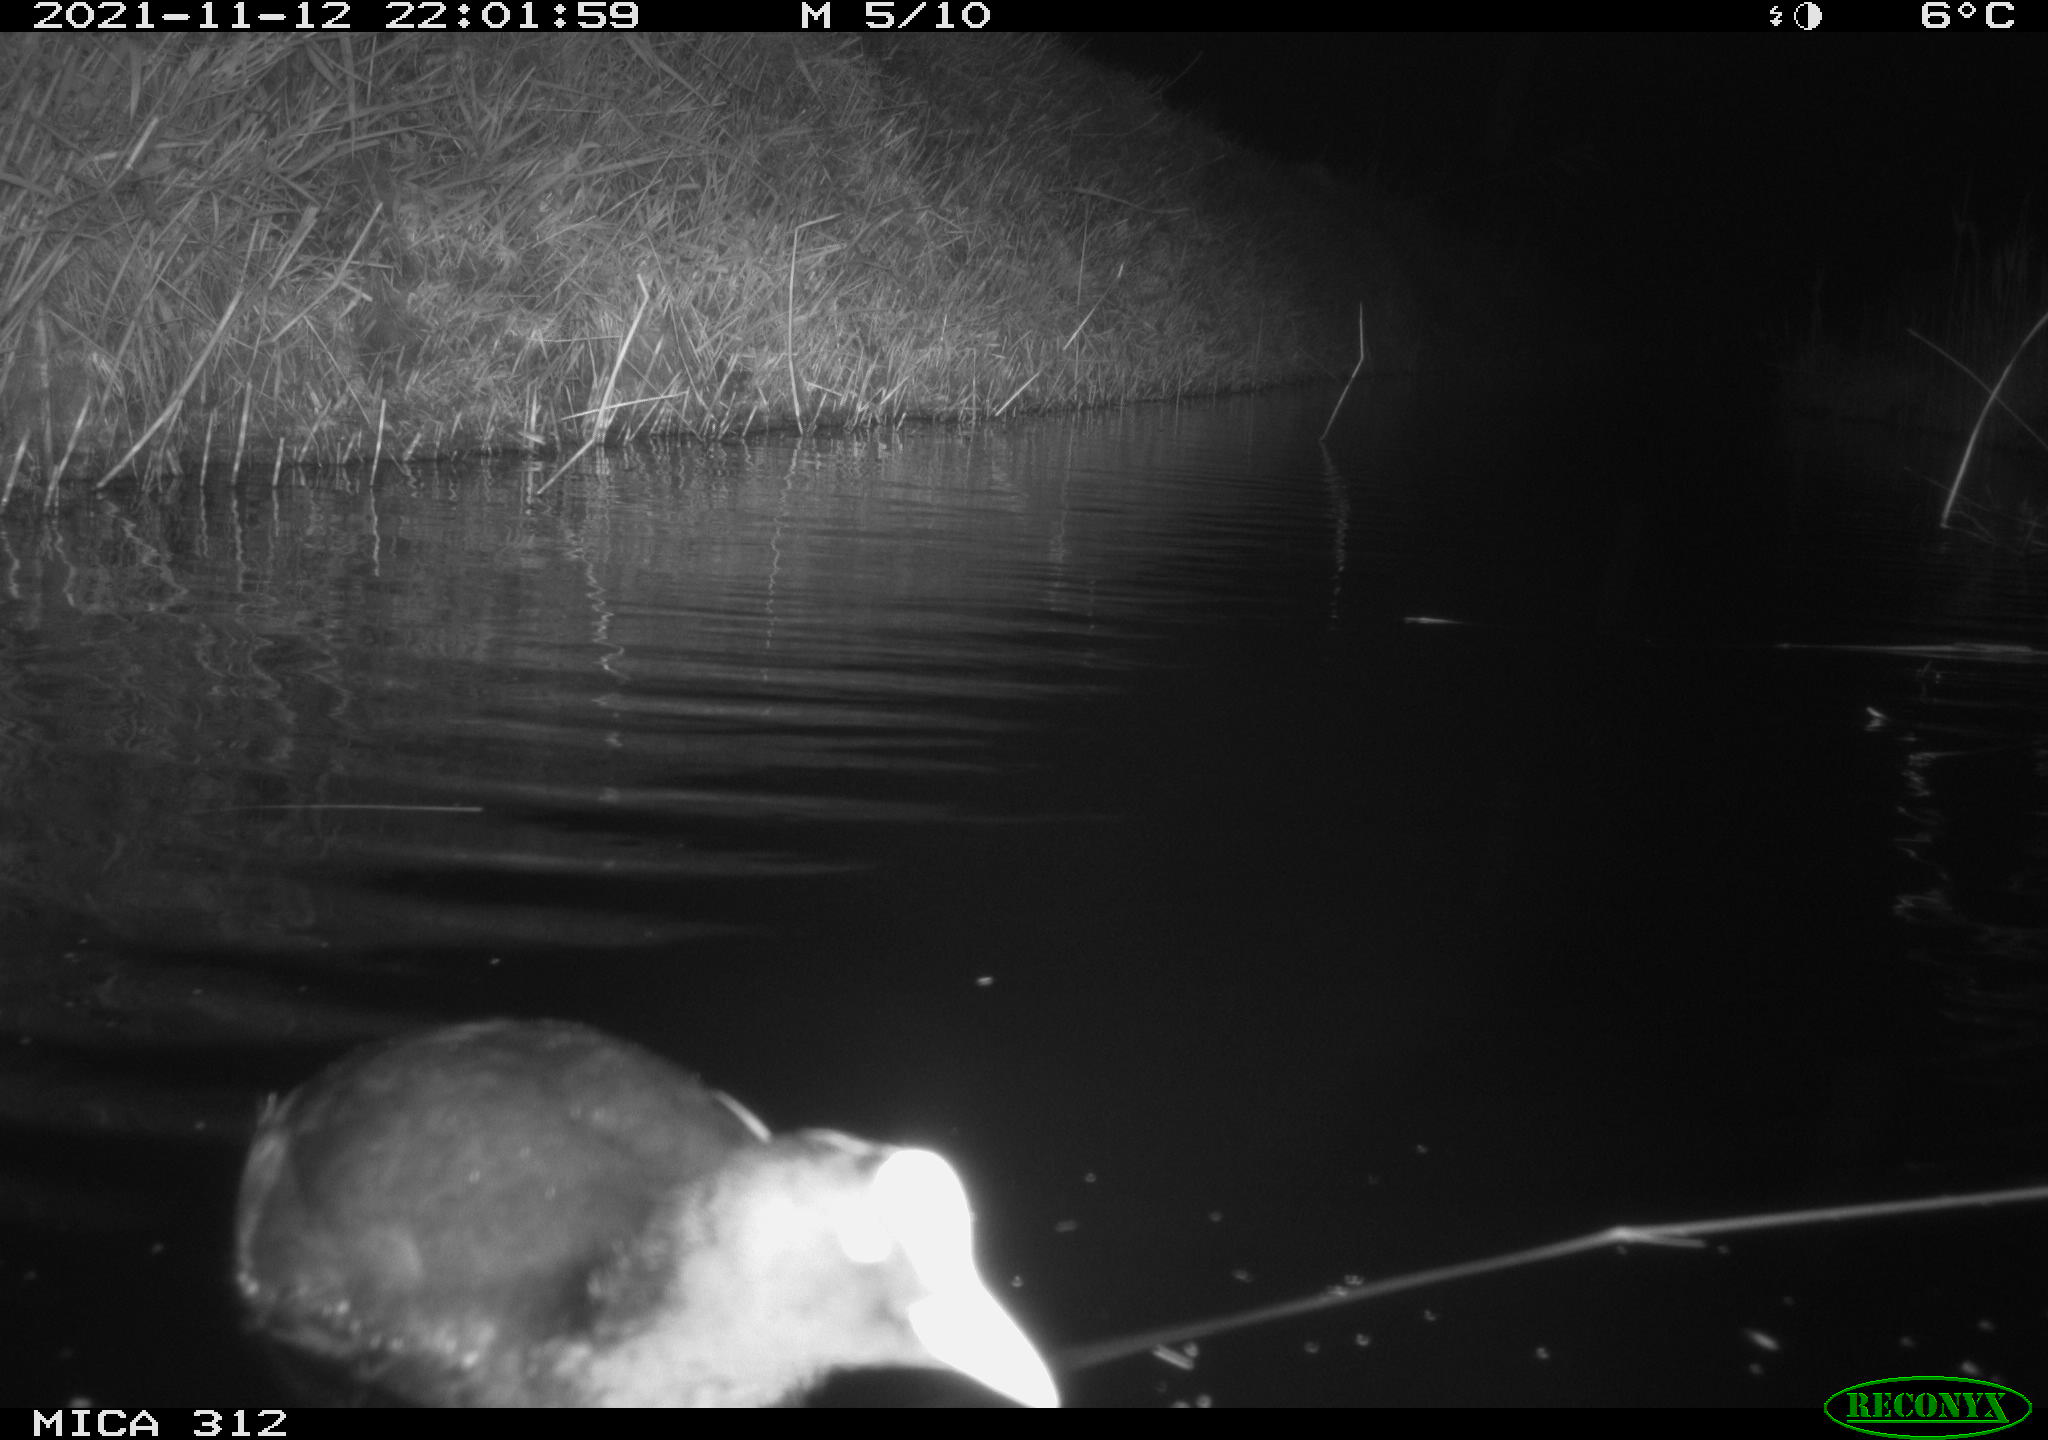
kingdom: Animalia
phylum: Chordata
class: Aves
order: Gruiformes
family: Rallidae
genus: Fulica
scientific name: Fulica atra
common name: Eurasian coot
